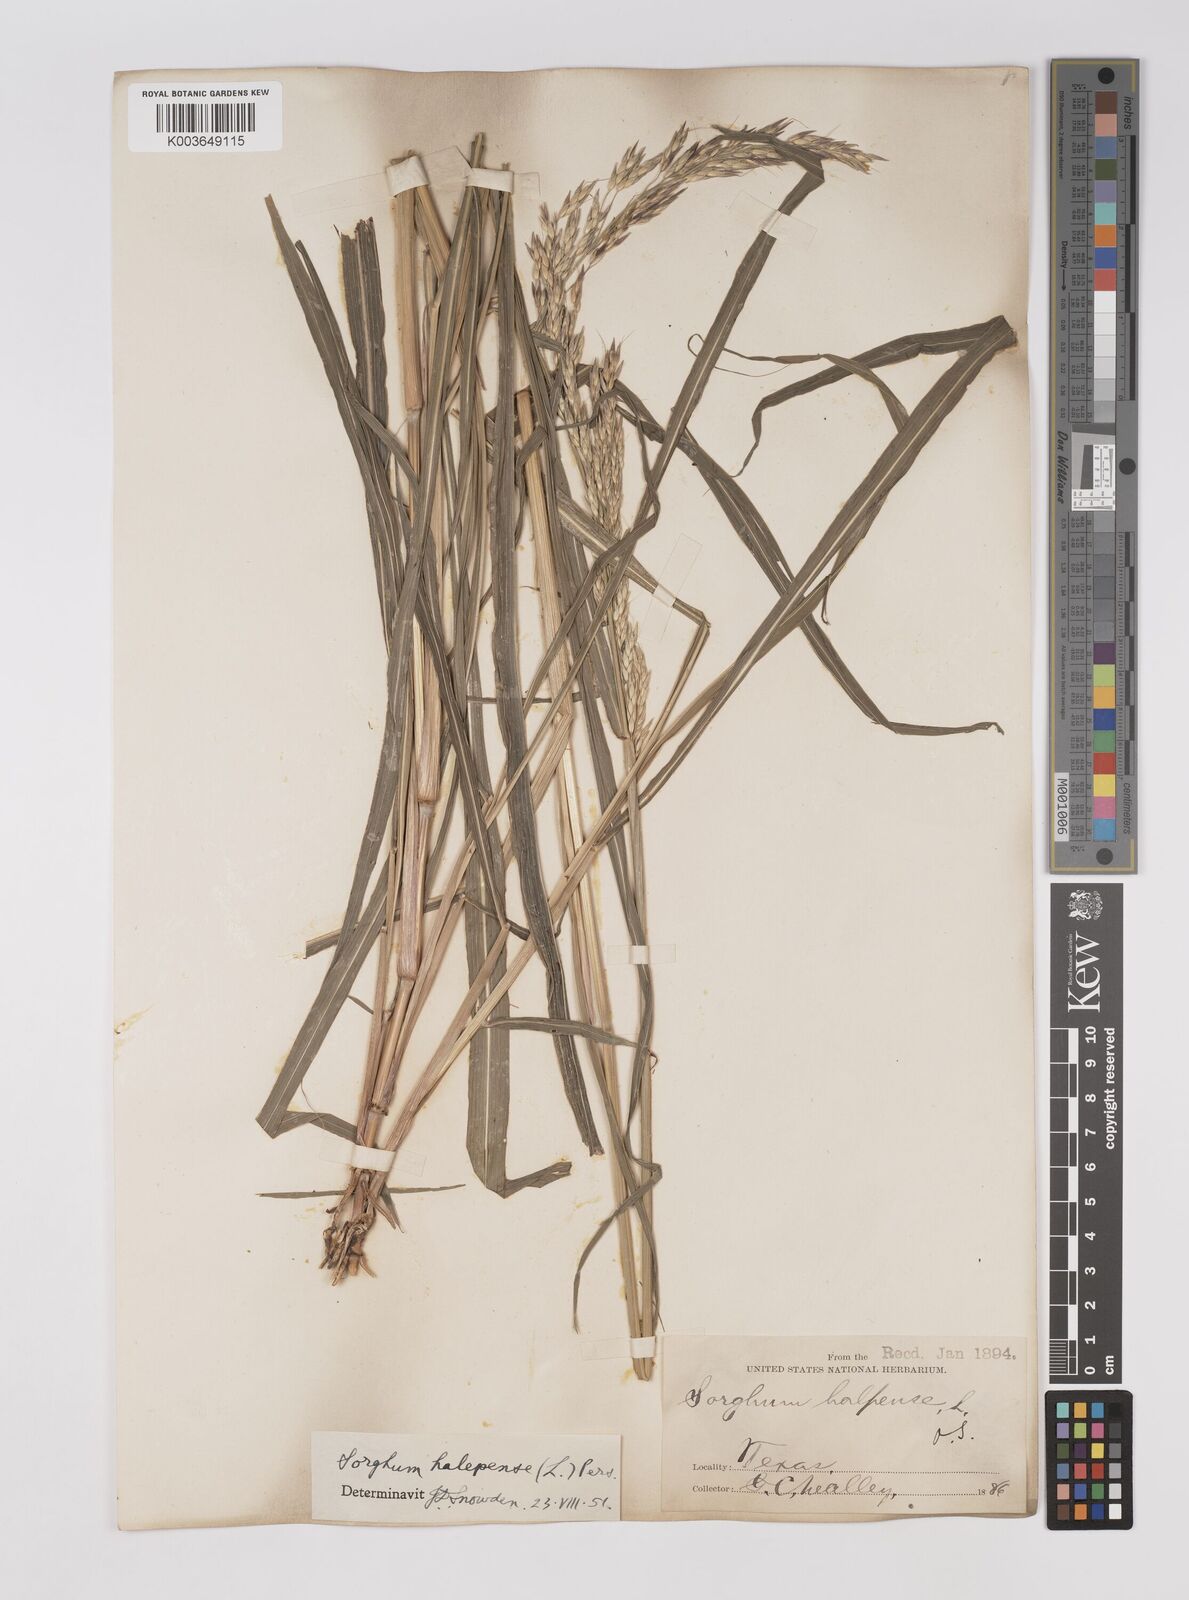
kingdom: Plantae
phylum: Tracheophyta
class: Liliopsida
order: Poales
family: Poaceae
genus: Sorghum
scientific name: Sorghum halepense
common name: Johnson-grass
